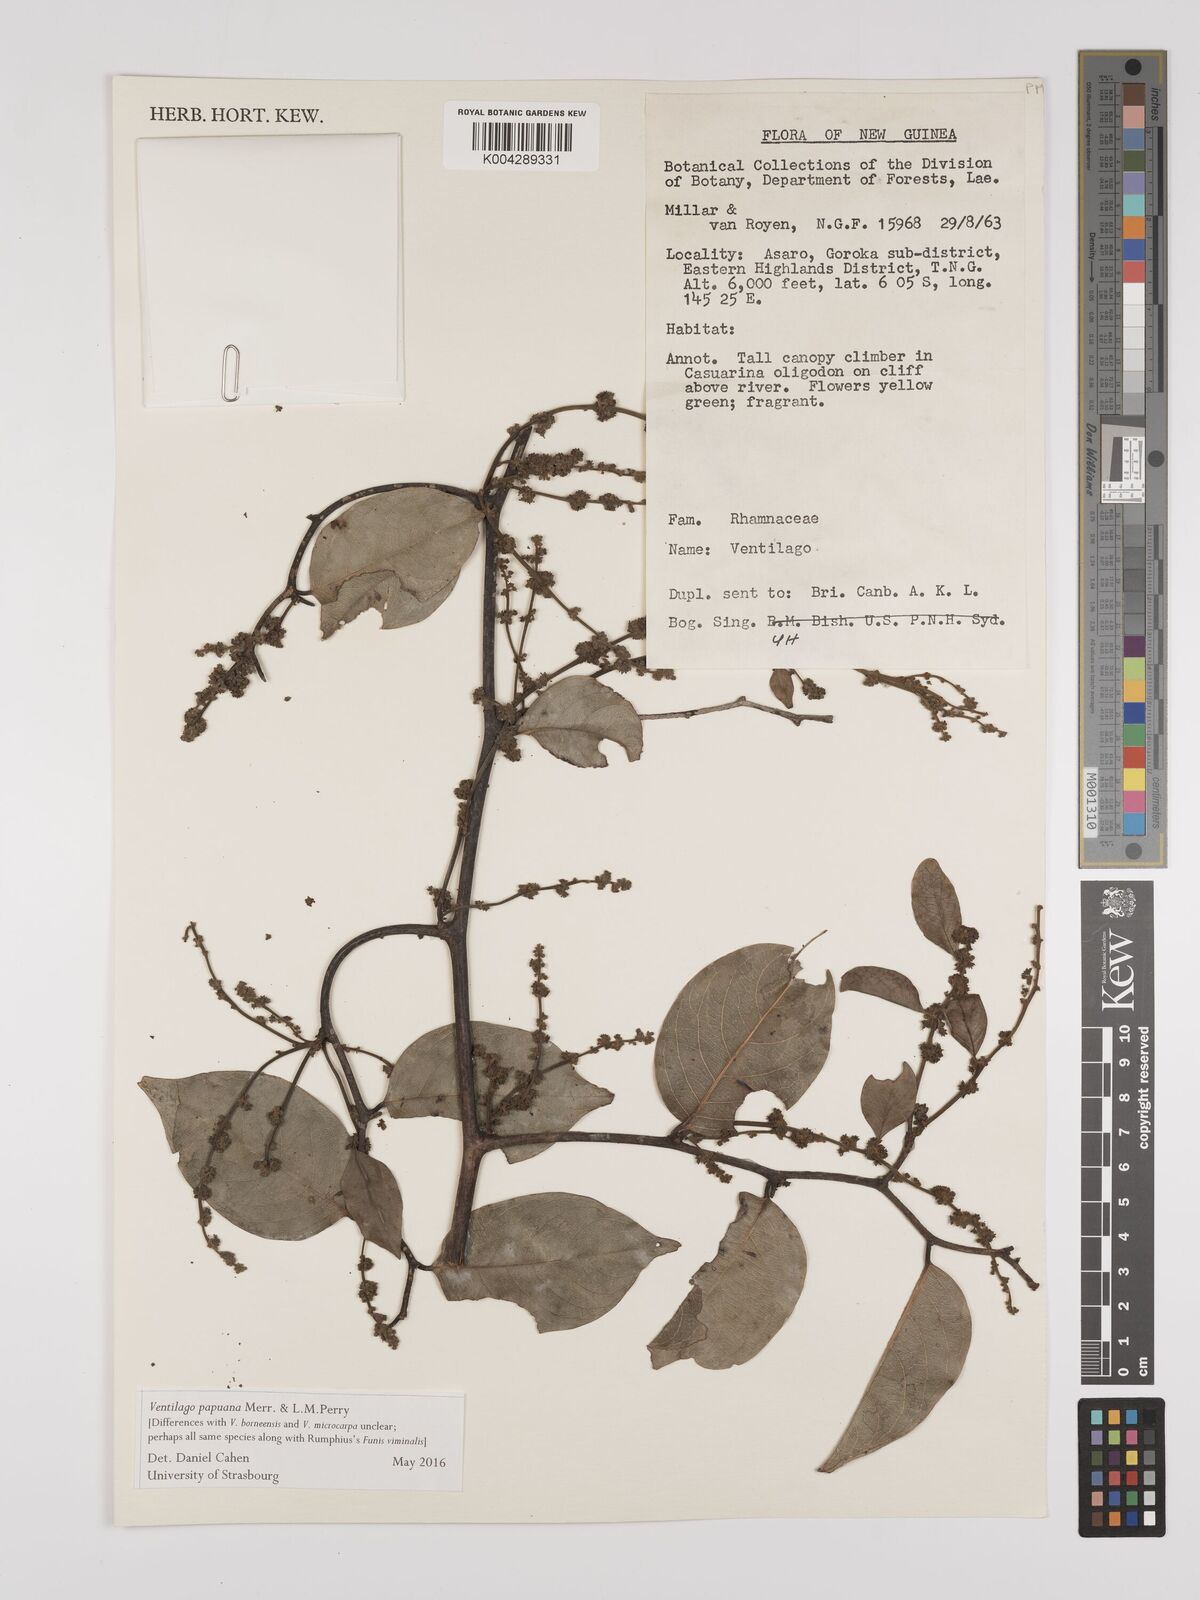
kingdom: Plantae
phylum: Tracheophyta
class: Magnoliopsida
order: Rosales
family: Rhamnaceae
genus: Ventilago
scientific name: Ventilago papuana
